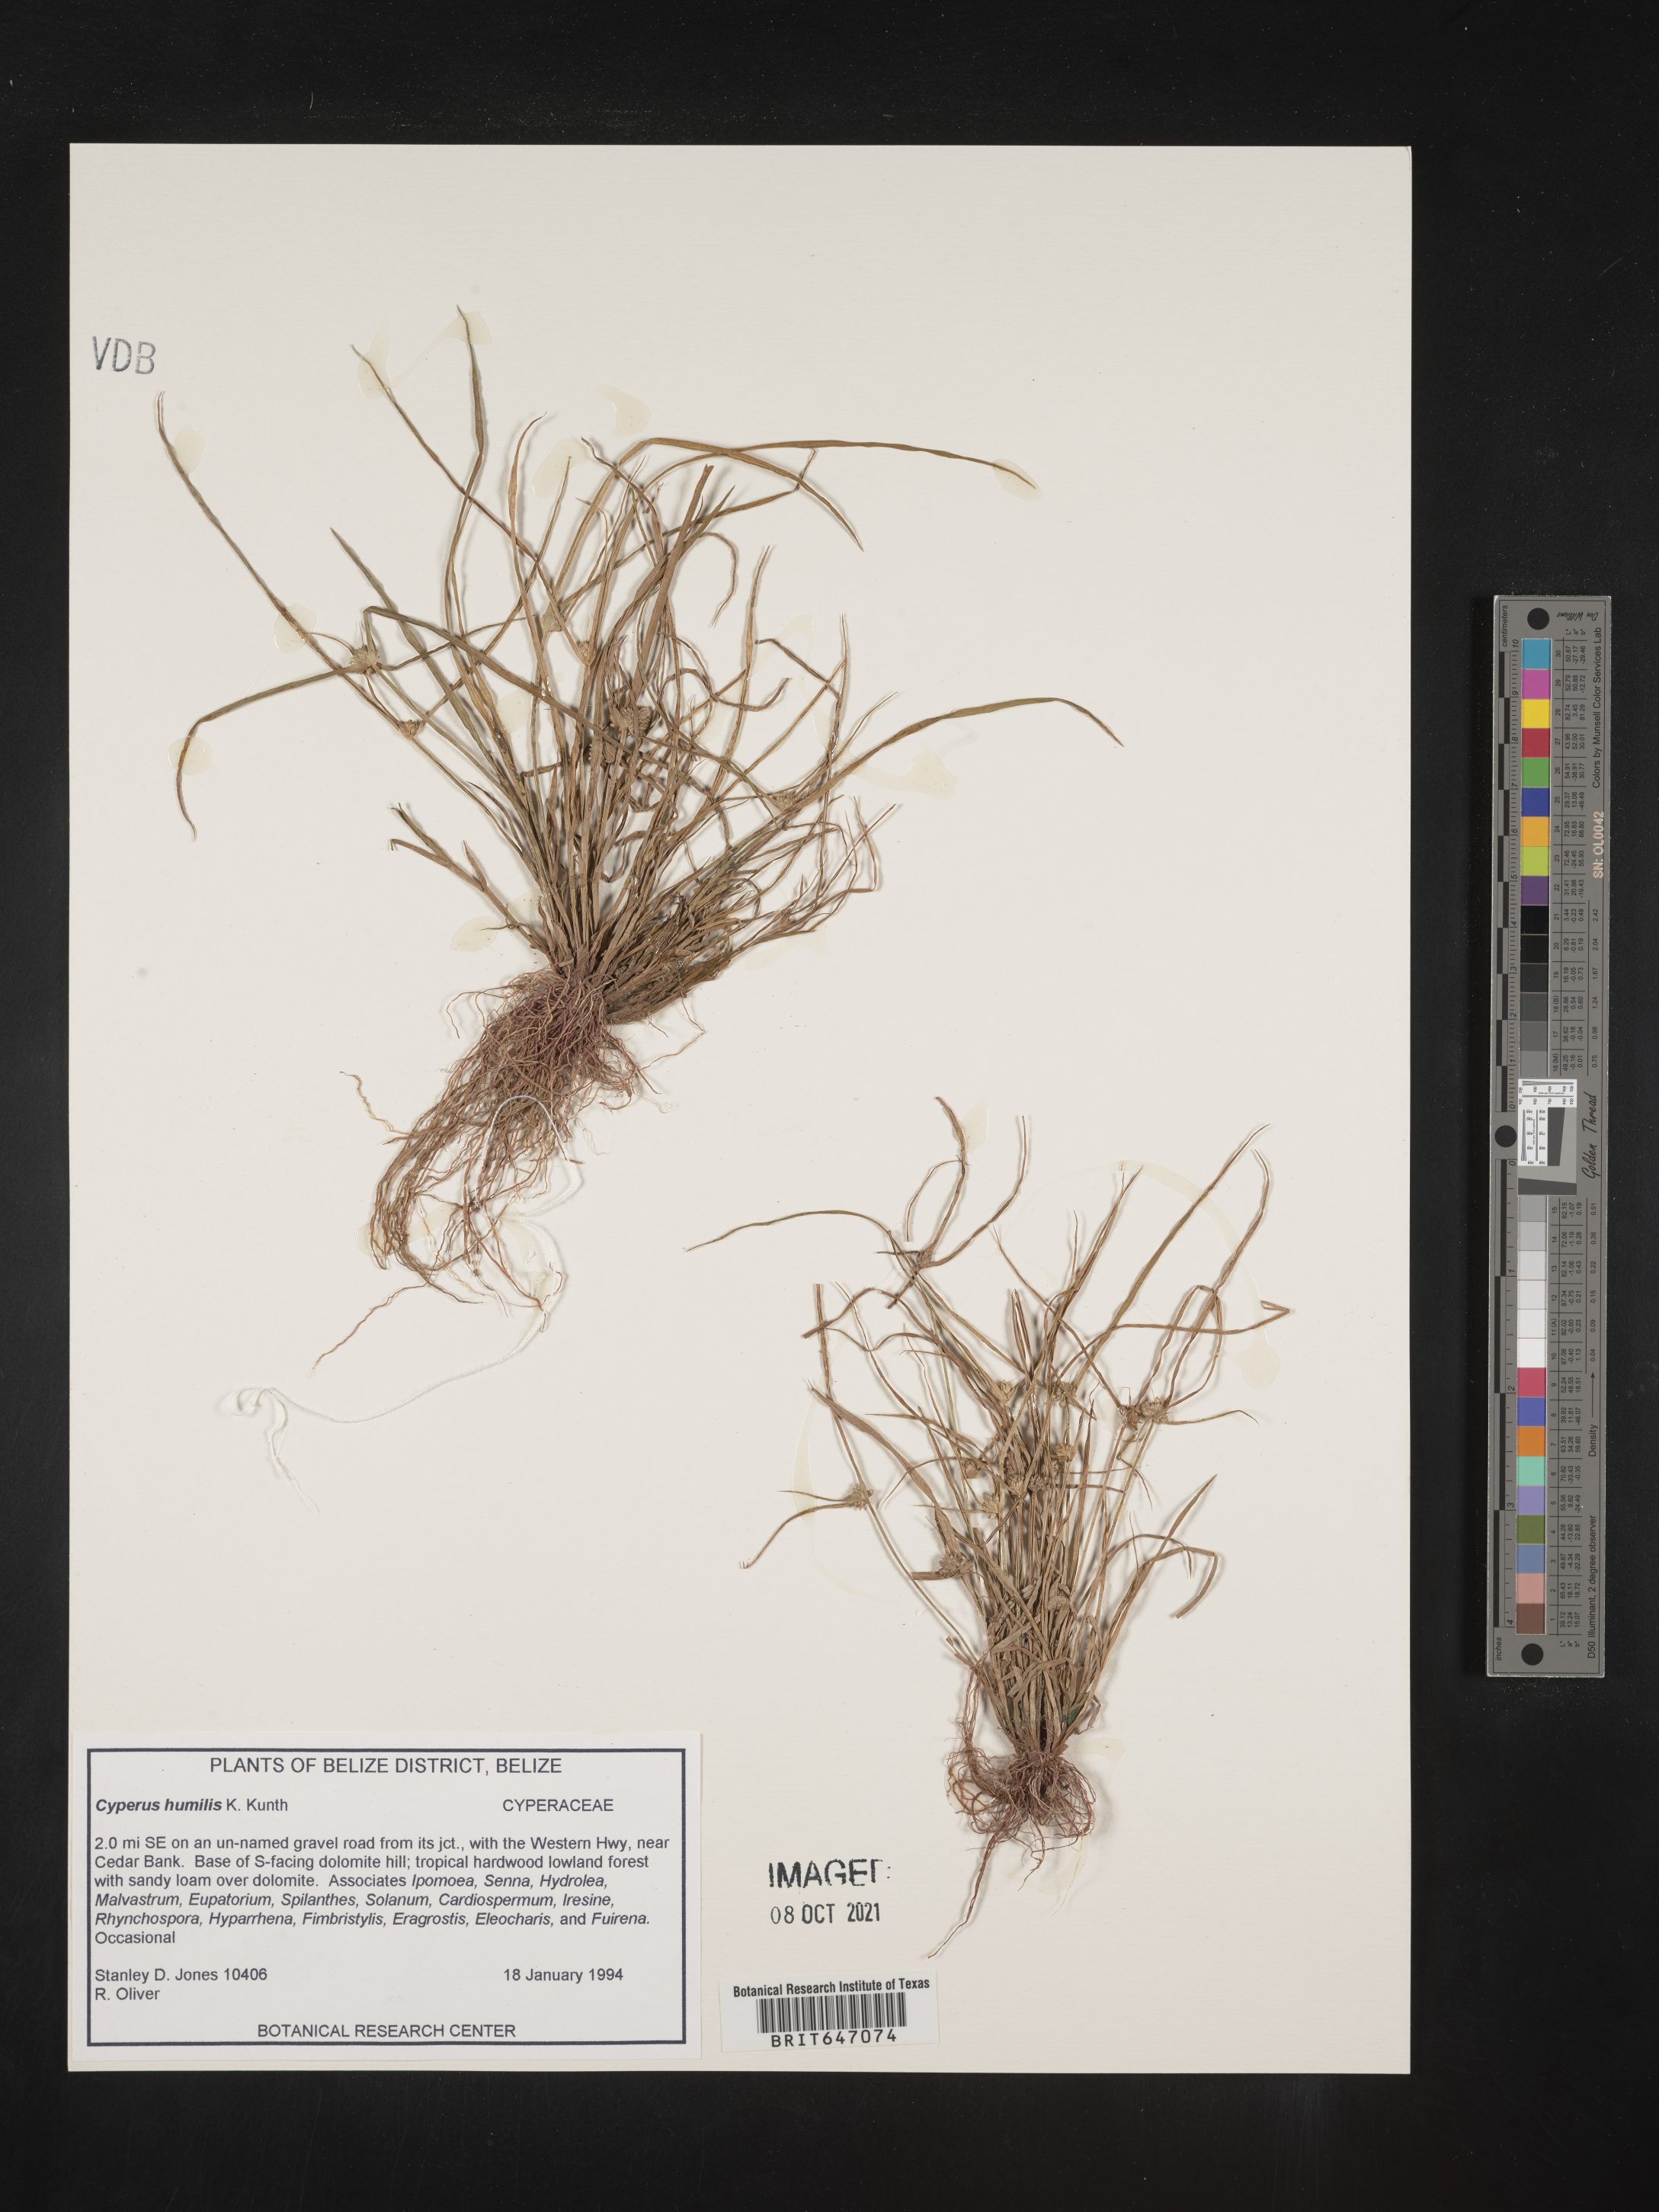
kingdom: Plantae
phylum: Tracheophyta
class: Liliopsida
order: Poales
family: Cyperaceae
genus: Cyperus
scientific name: Cyperus humilis
